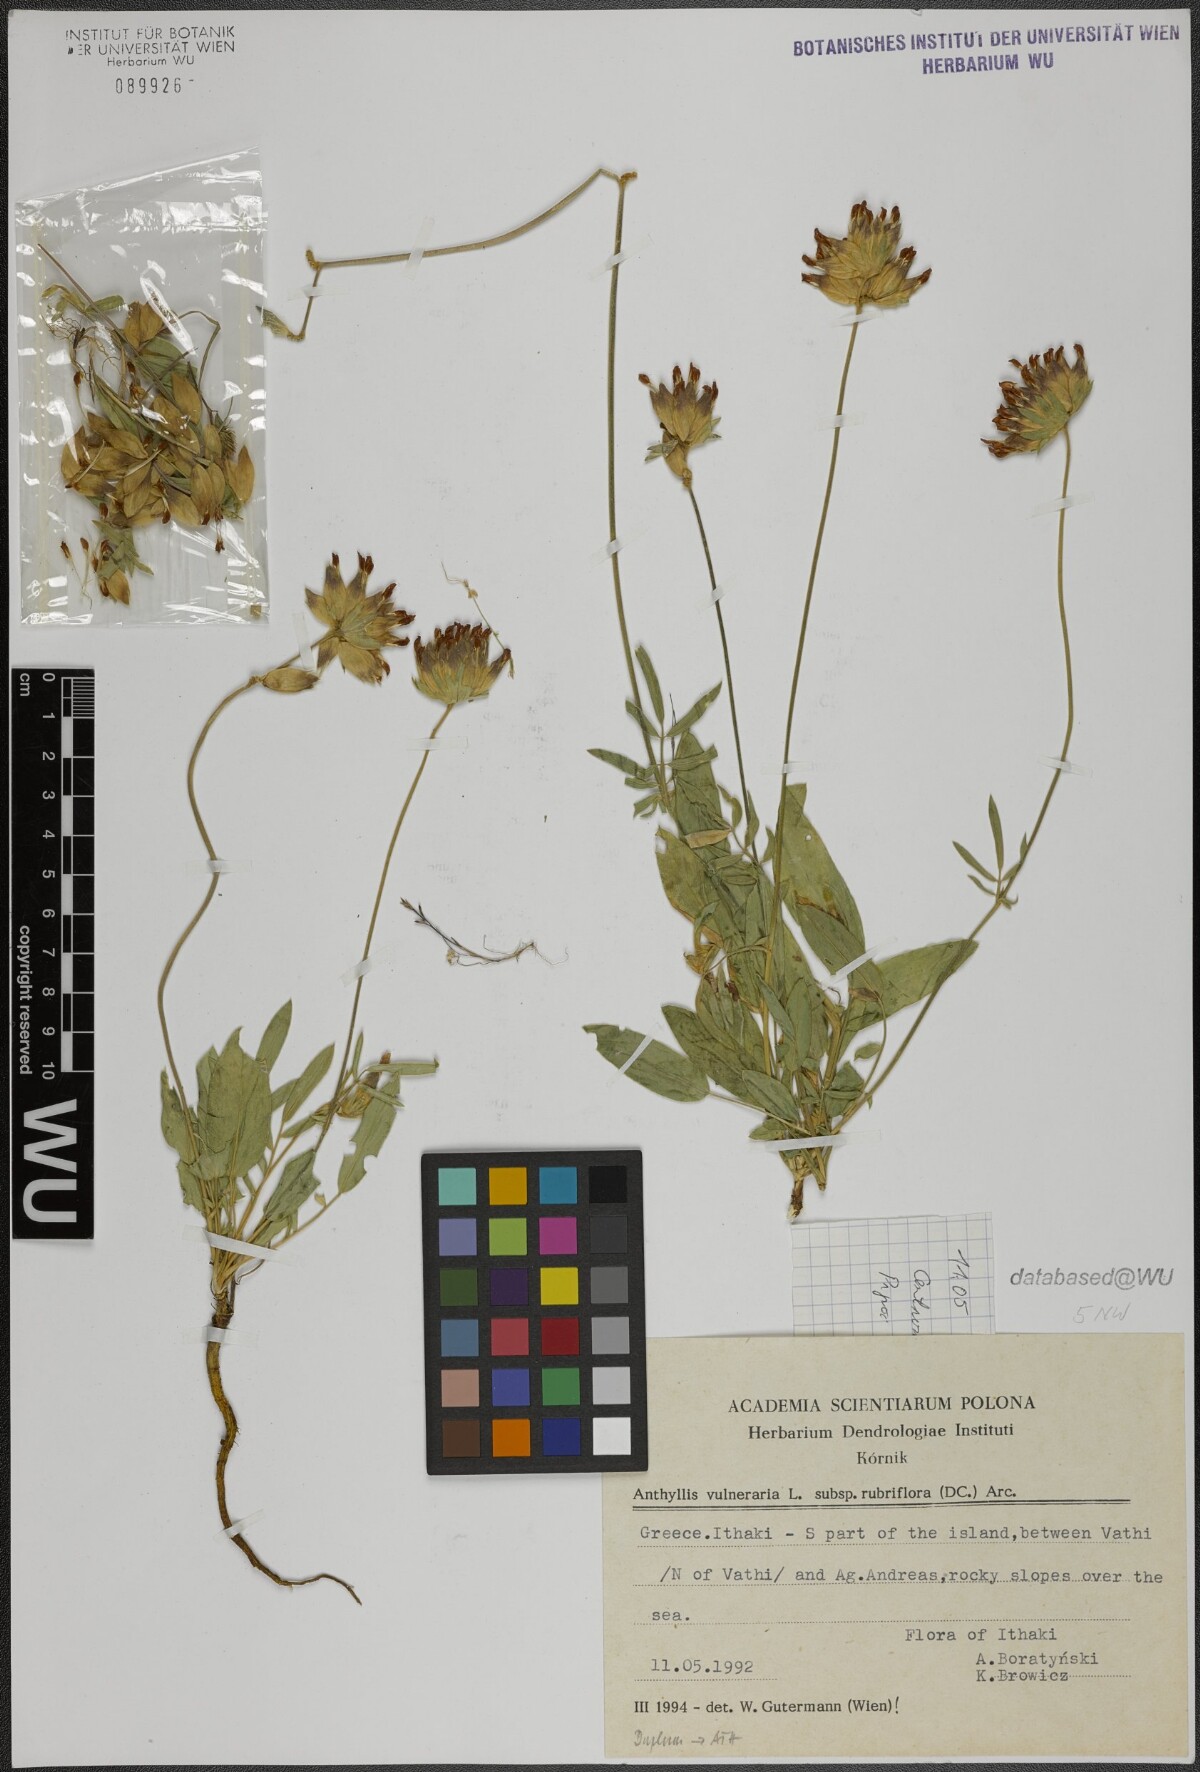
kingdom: Plantae
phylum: Tracheophyta
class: Magnoliopsida
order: Fabales
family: Fabaceae
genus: Anthyllis
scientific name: Anthyllis vulneraria
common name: Kidney vetch
